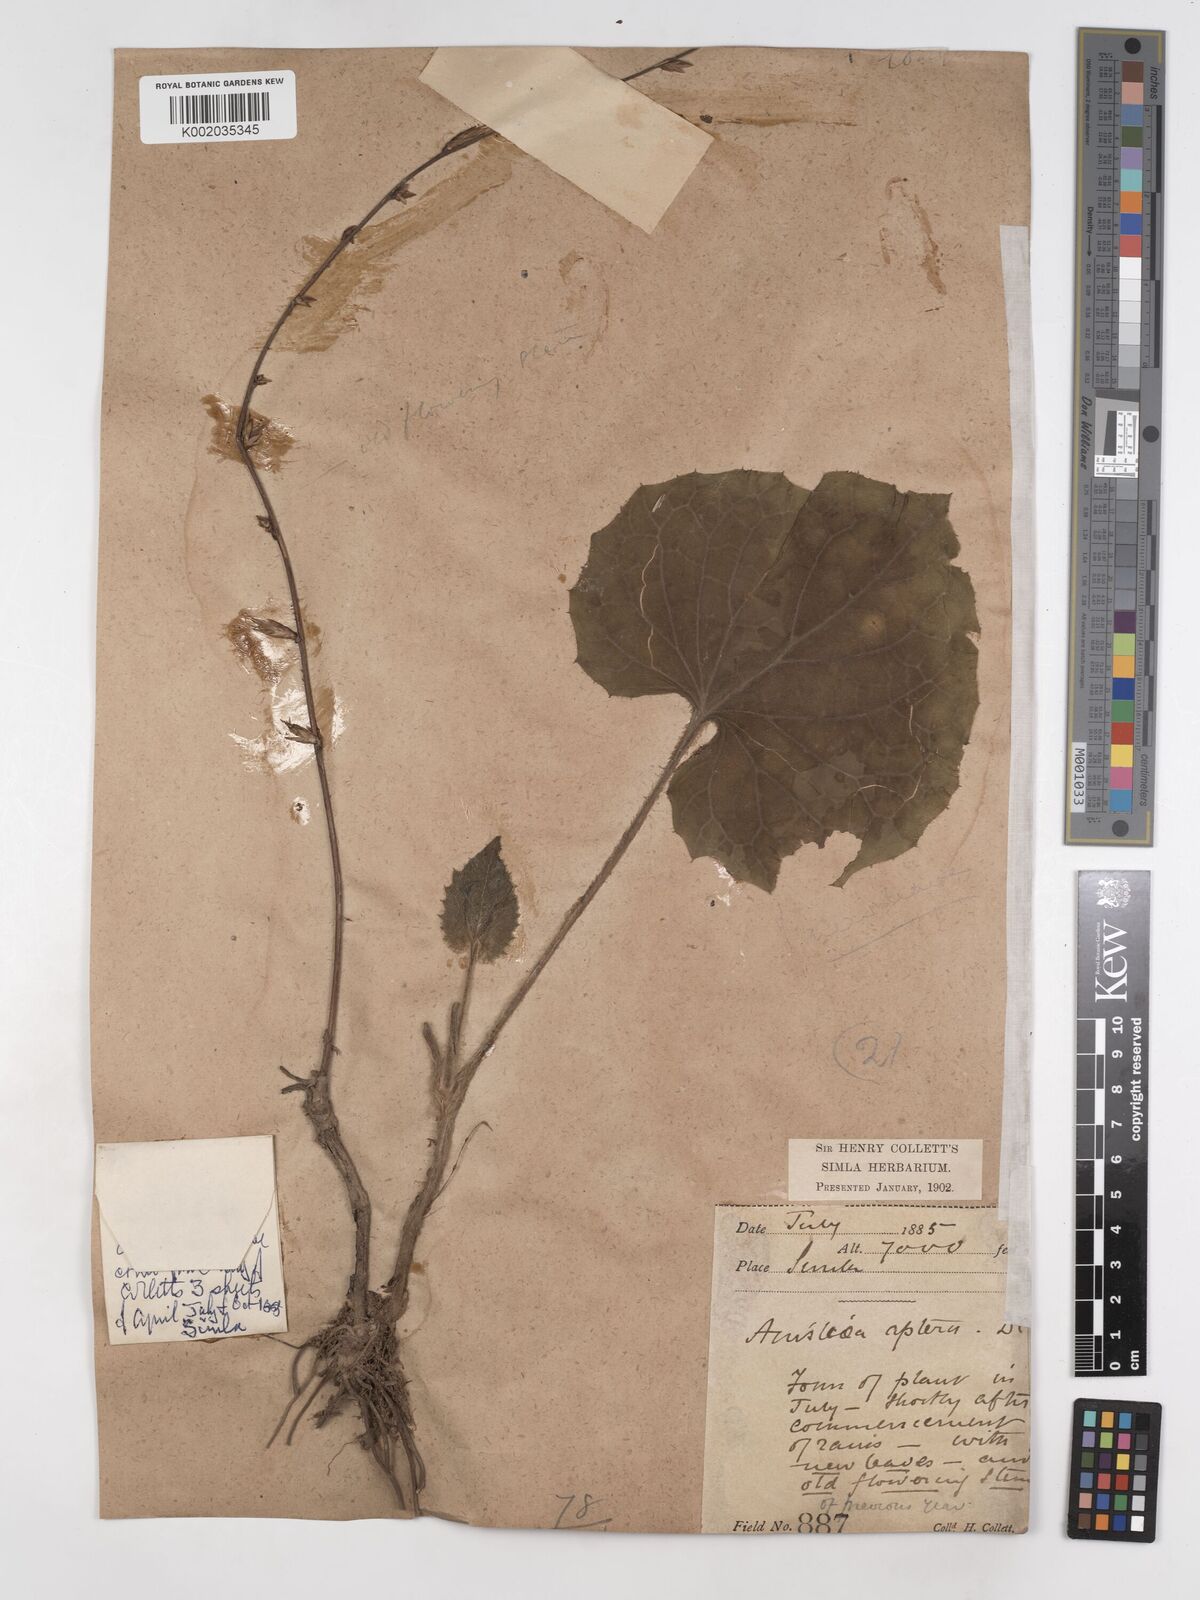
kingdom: Plantae
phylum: Tracheophyta
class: Magnoliopsida
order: Asterales
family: Asteraceae
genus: Ainsliaea
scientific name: Ainsliaea aptera
